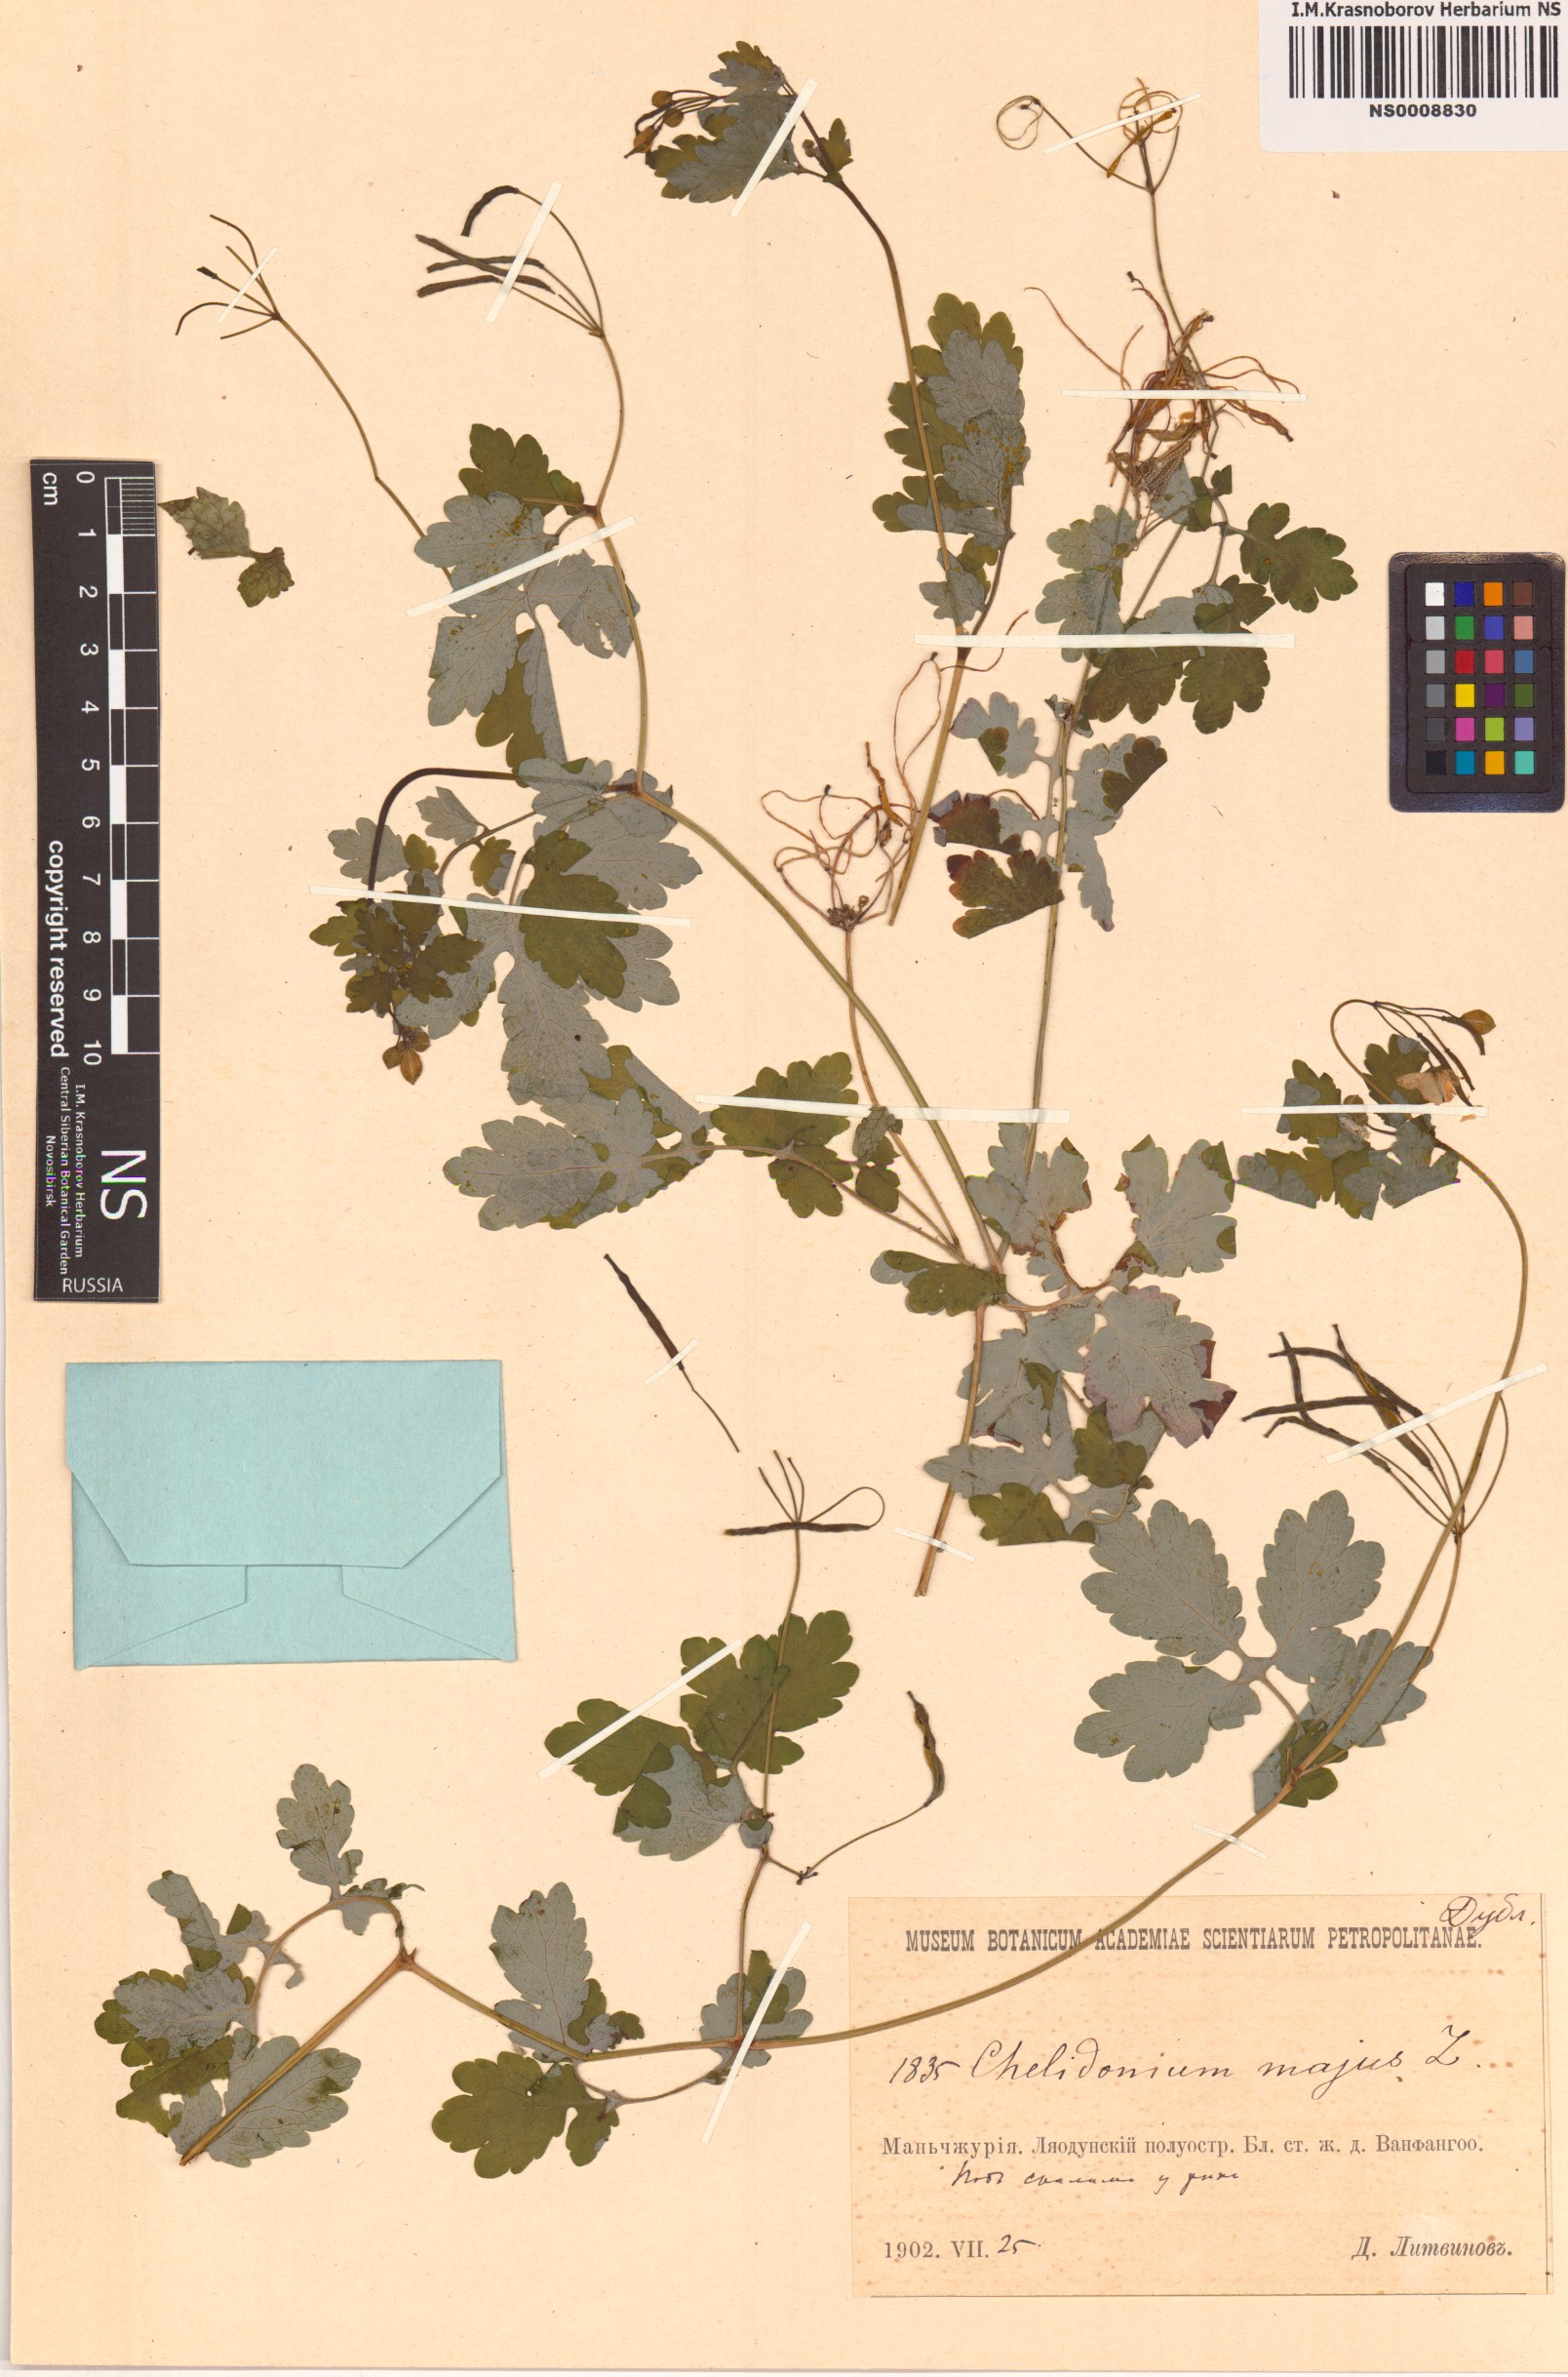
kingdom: Plantae
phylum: Tracheophyta
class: Magnoliopsida
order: Ranunculales
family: Papaveraceae
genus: Chelidonium
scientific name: Chelidonium majus
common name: Greater celandine
